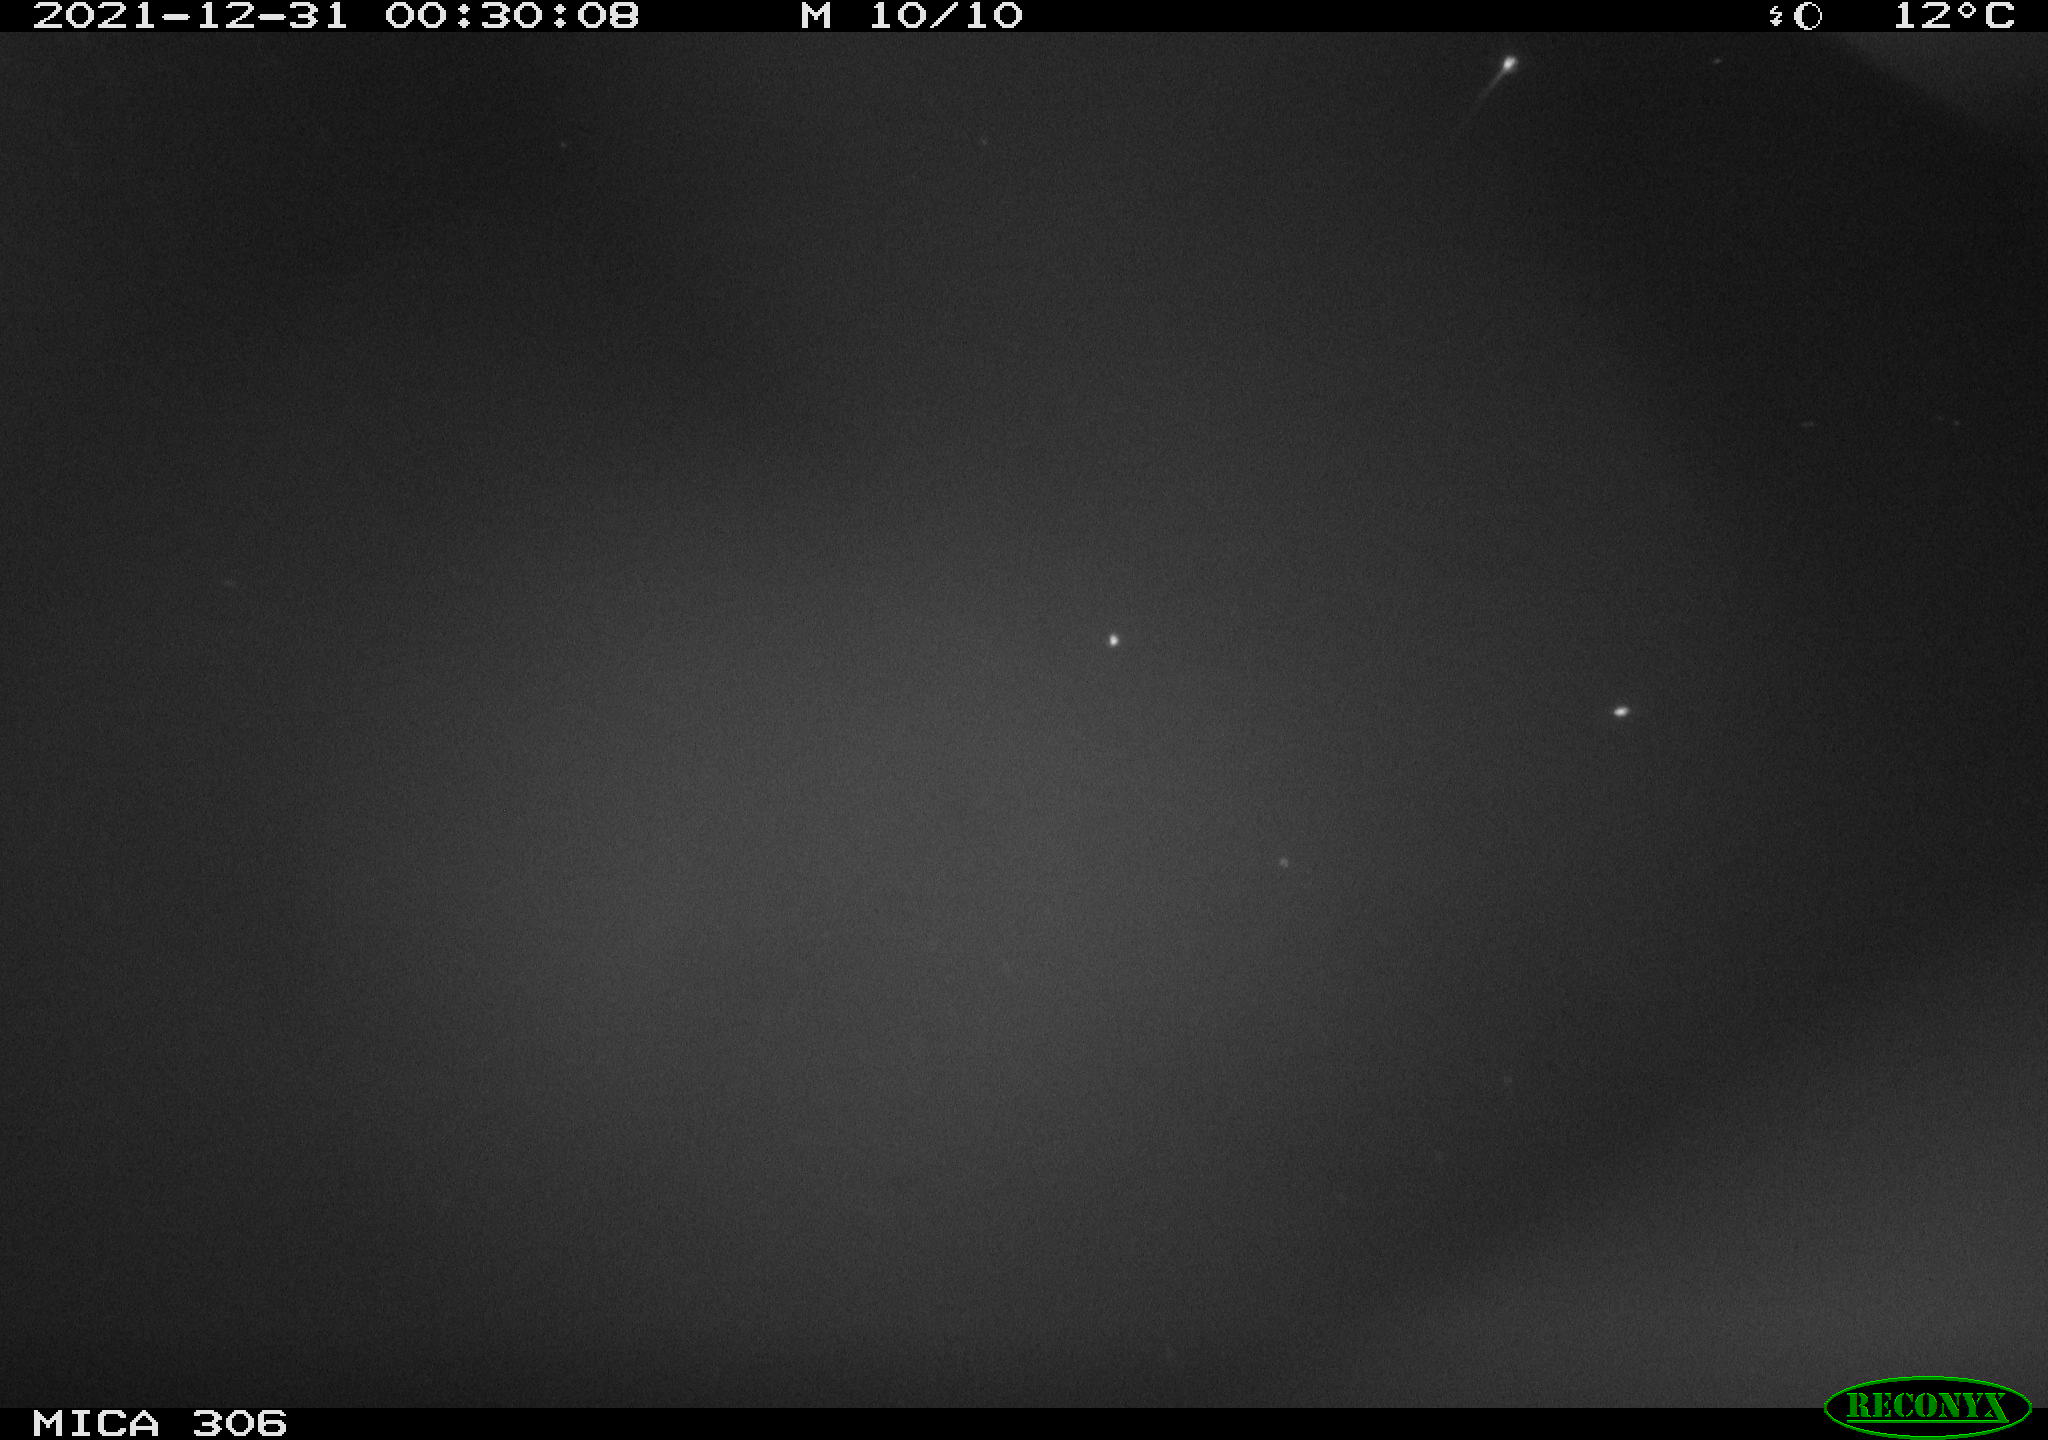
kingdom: Animalia
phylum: Chordata
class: Mammalia
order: Rodentia
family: Muridae
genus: Rattus
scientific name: Rattus norvegicus
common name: Brown rat
